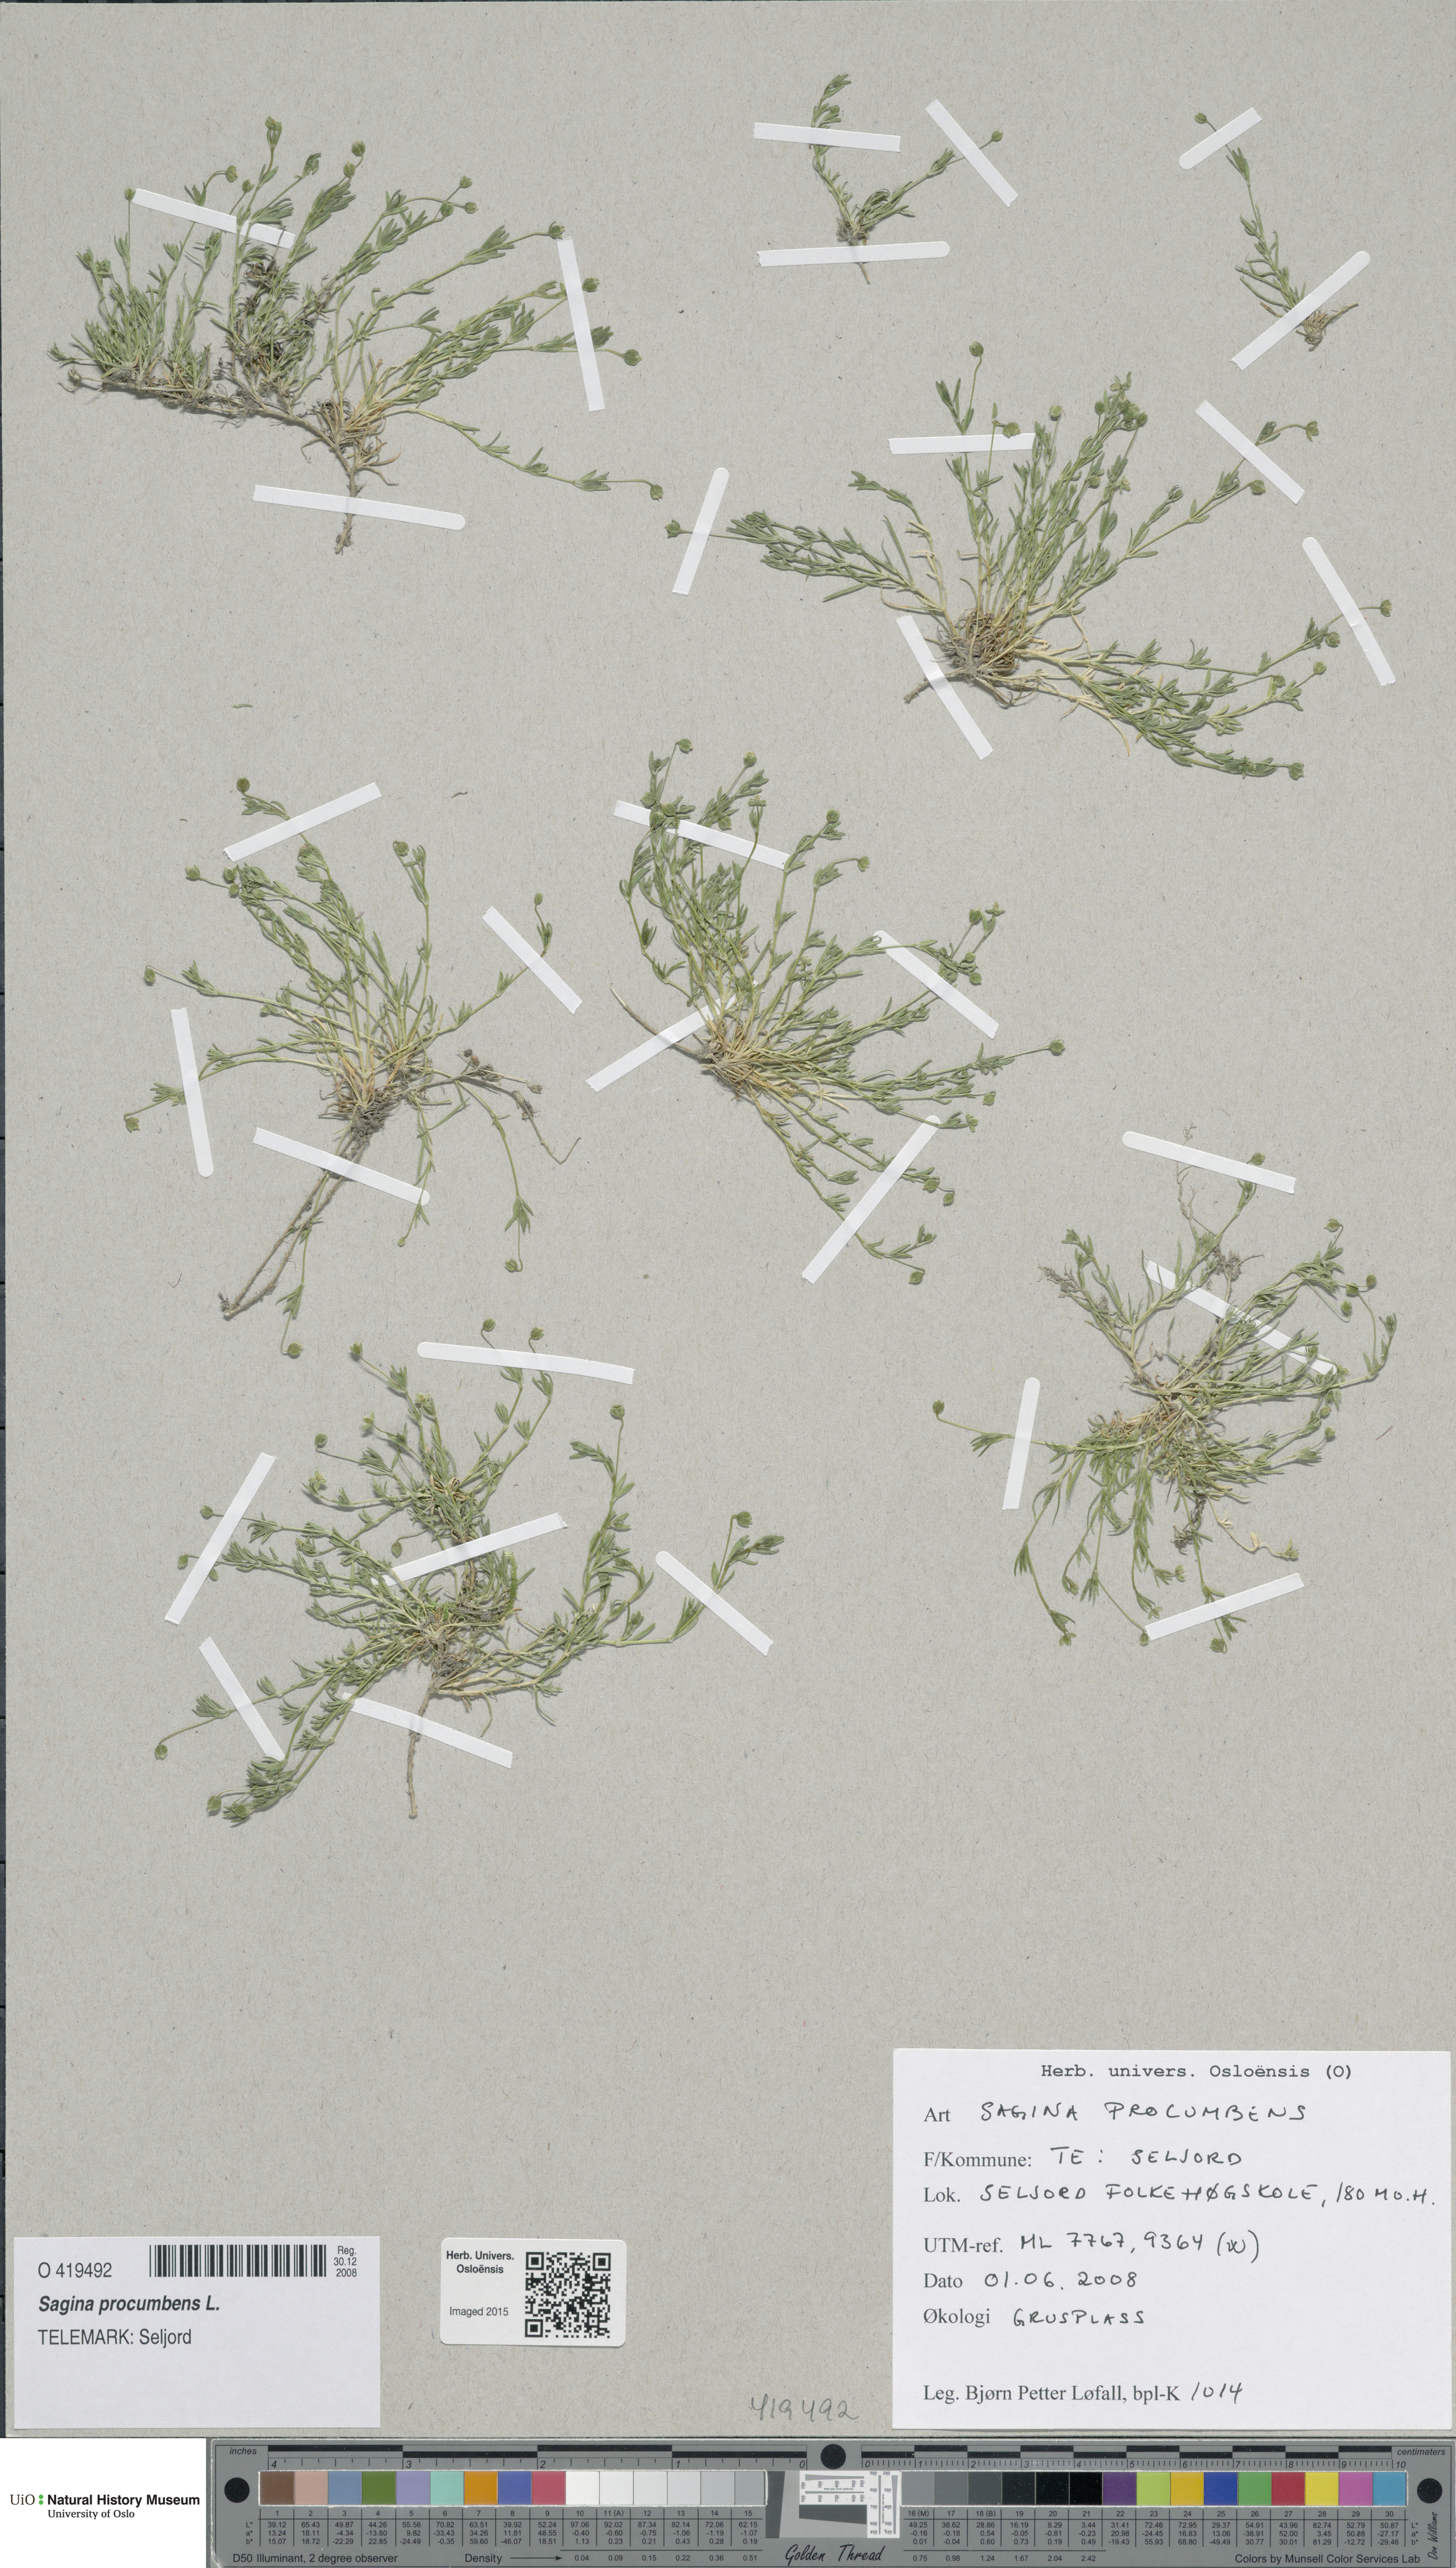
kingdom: Plantae
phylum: Tracheophyta
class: Magnoliopsida
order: Caryophyllales
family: Caryophyllaceae
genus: Sagina
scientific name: Sagina procumbens
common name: Procumbent pearlwort
